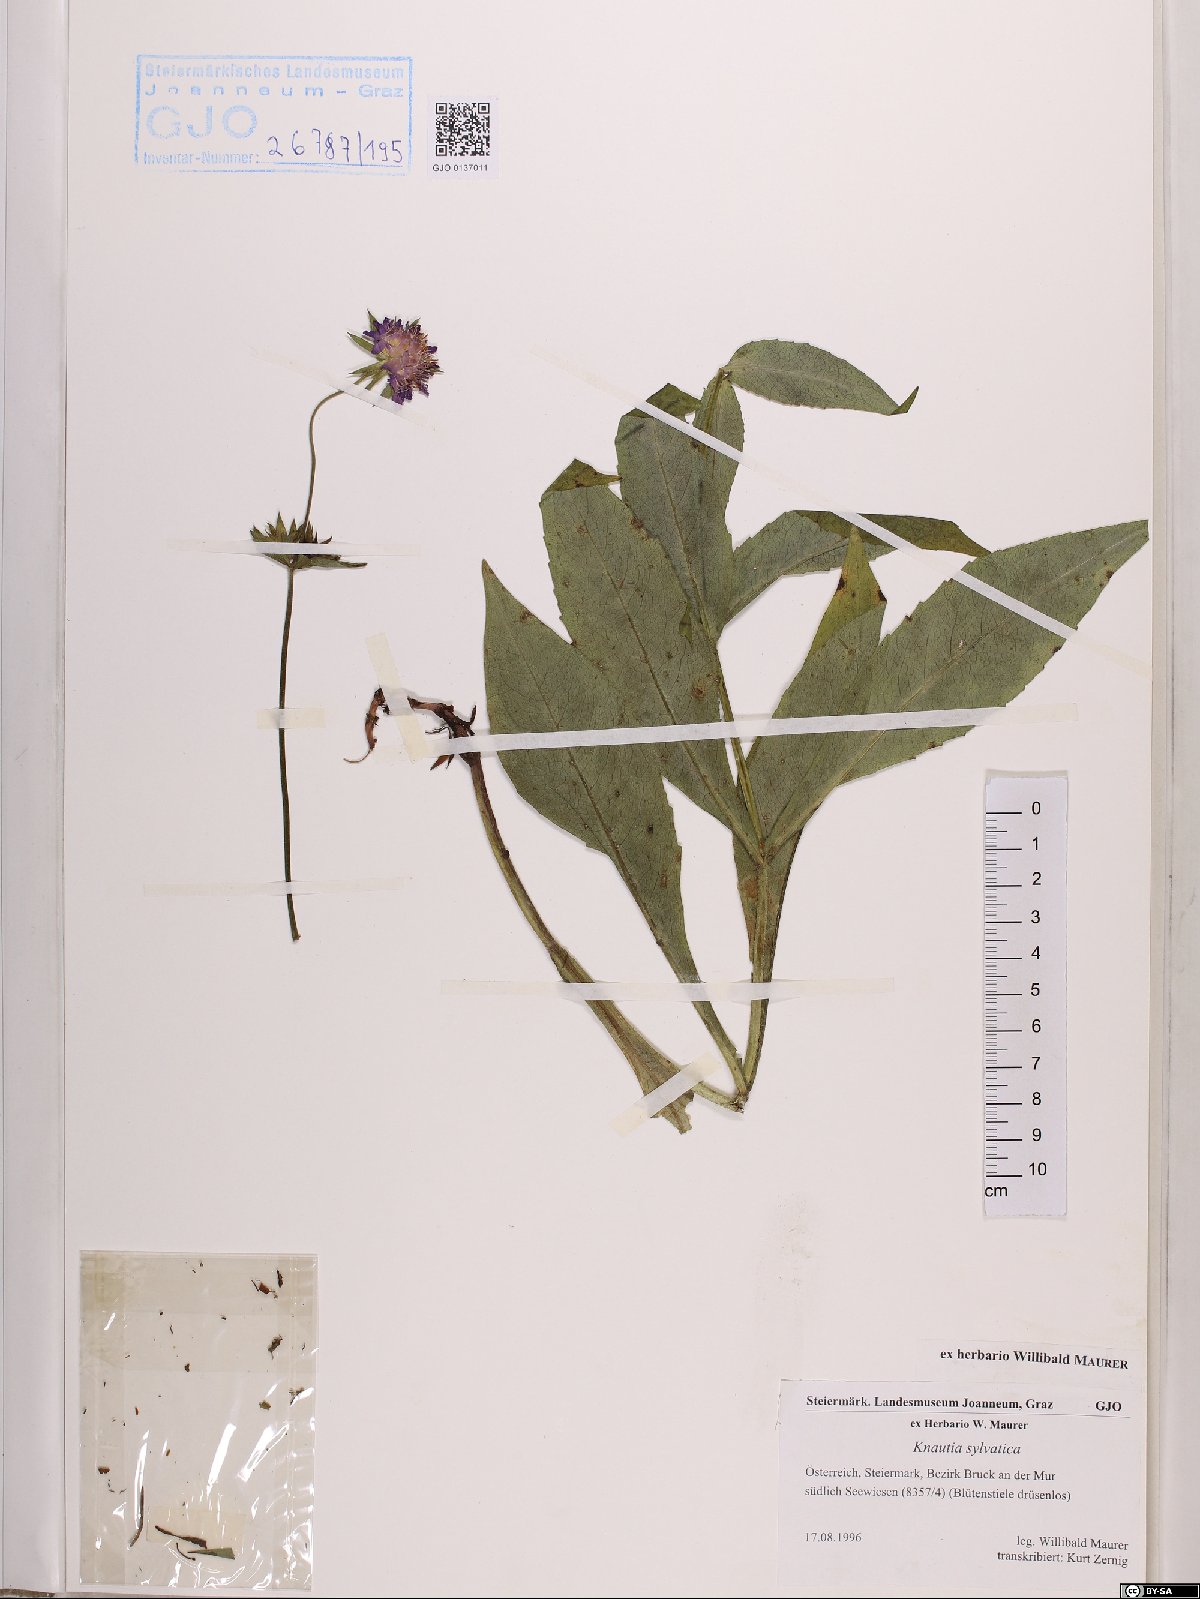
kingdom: Plantae
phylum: Tracheophyta
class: Magnoliopsida
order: Dipsacales
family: Caprifoliaceae
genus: Knautia
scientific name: Knautia drymeia
